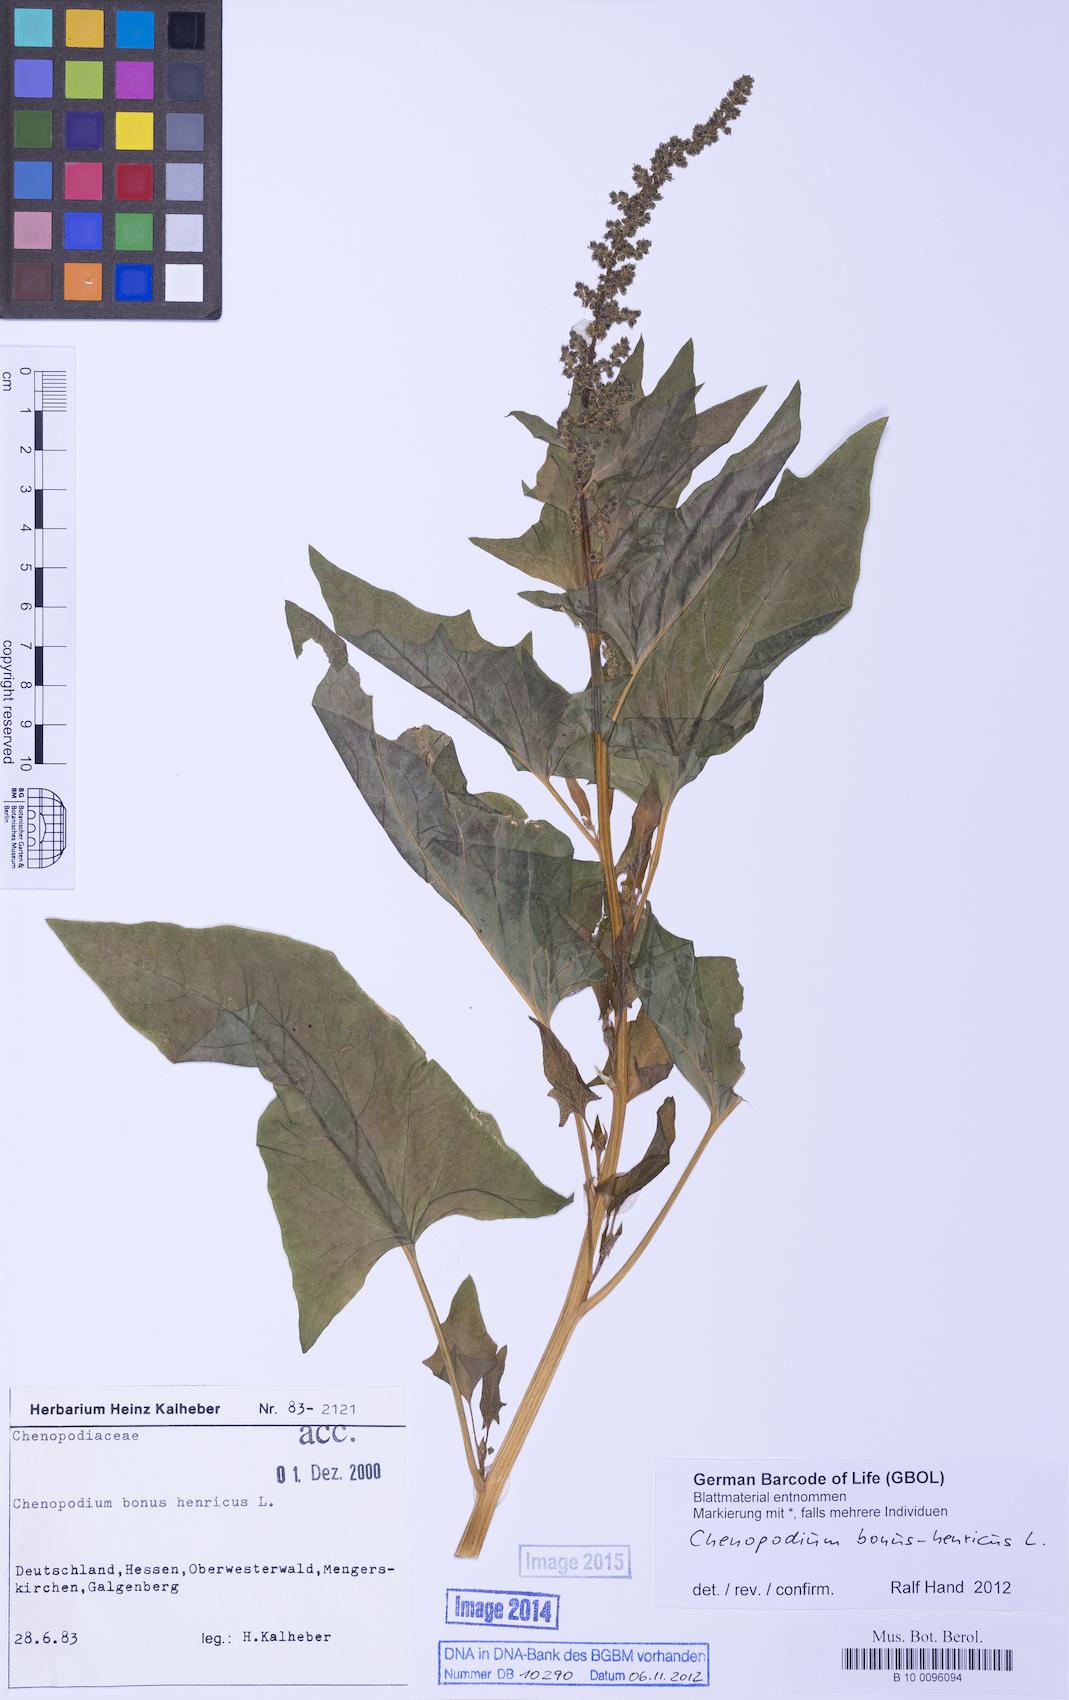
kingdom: Plantae
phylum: Tracheophyta
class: Magnoliopsida
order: Caryophyllales
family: Amaranthaceae
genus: Blitum
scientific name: Blitum bonus-henricus
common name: Good king henry
